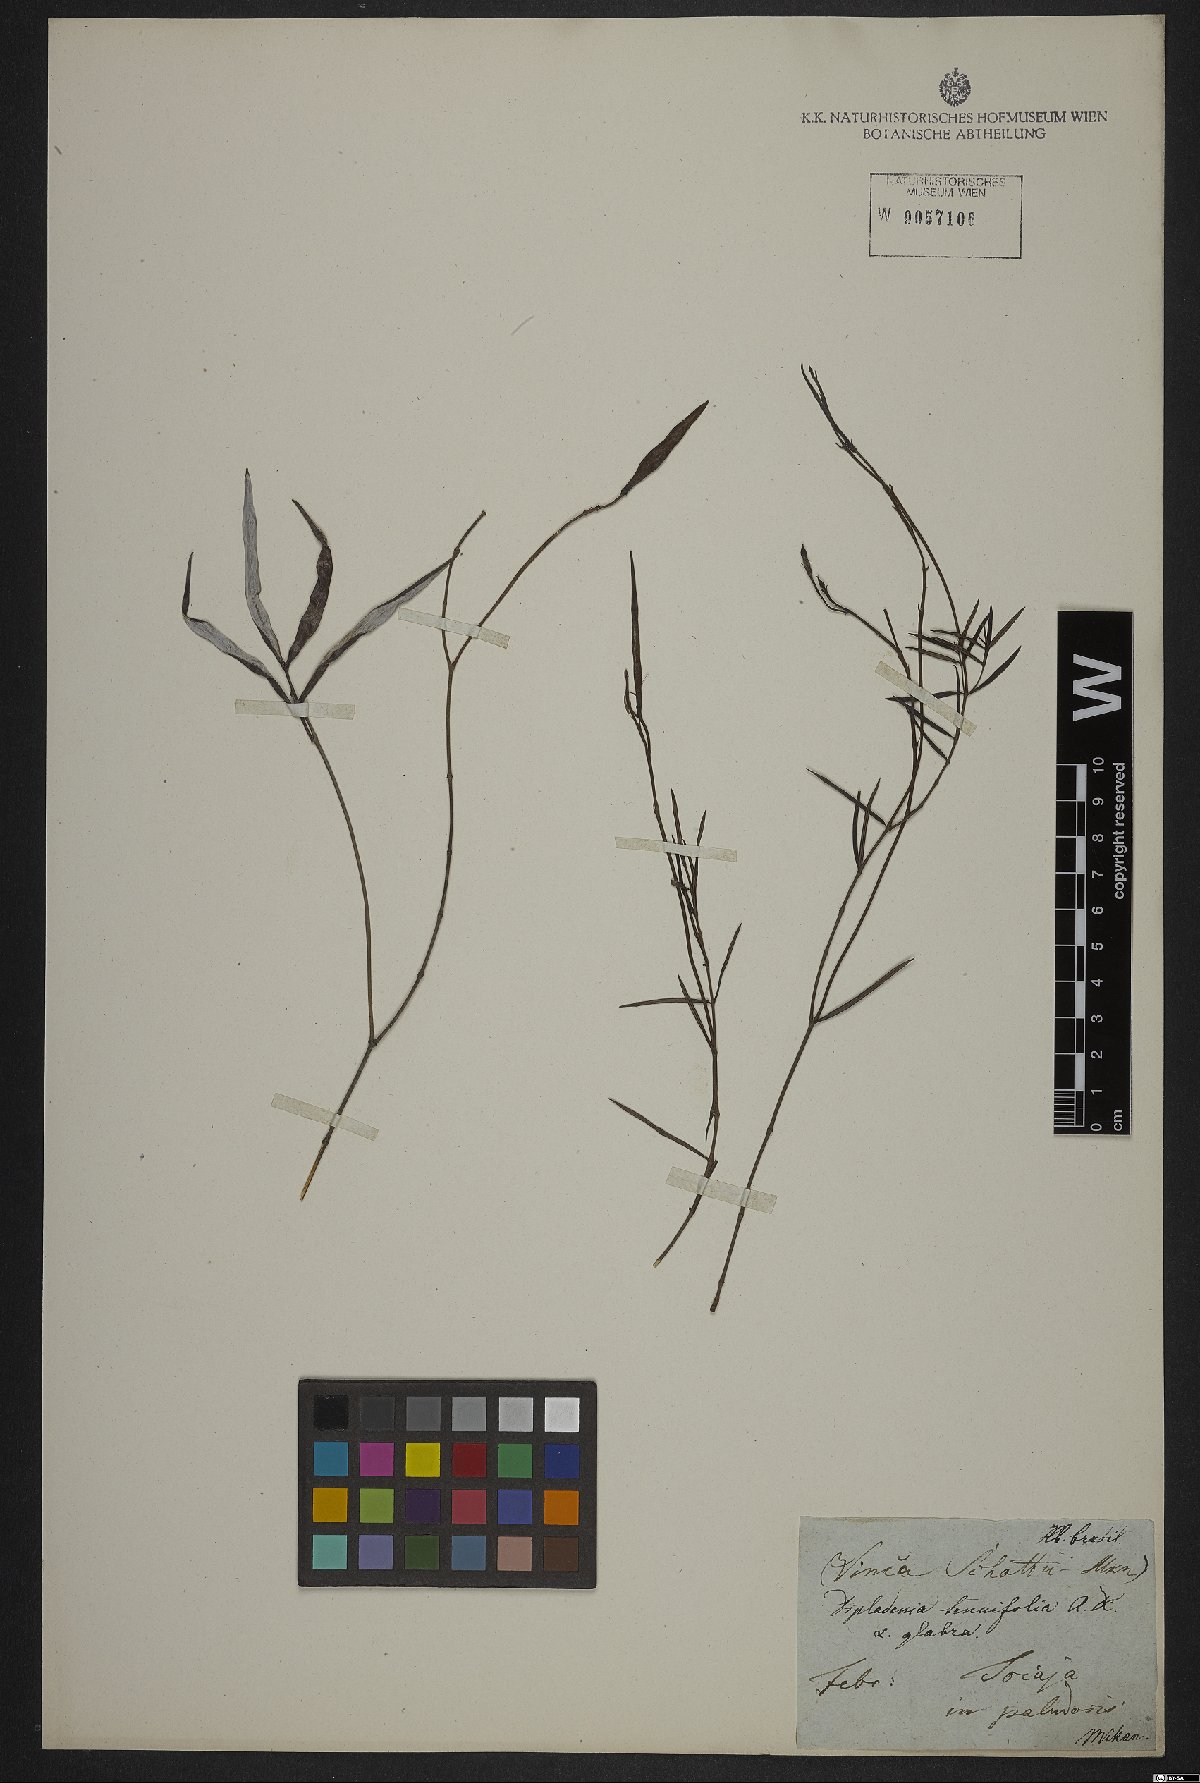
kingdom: Plantae
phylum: Tracheophyta
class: Magnoliopsida
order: Gentianales
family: Apocynaceae
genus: Mandevilla
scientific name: Mandevilla tenuifolia
